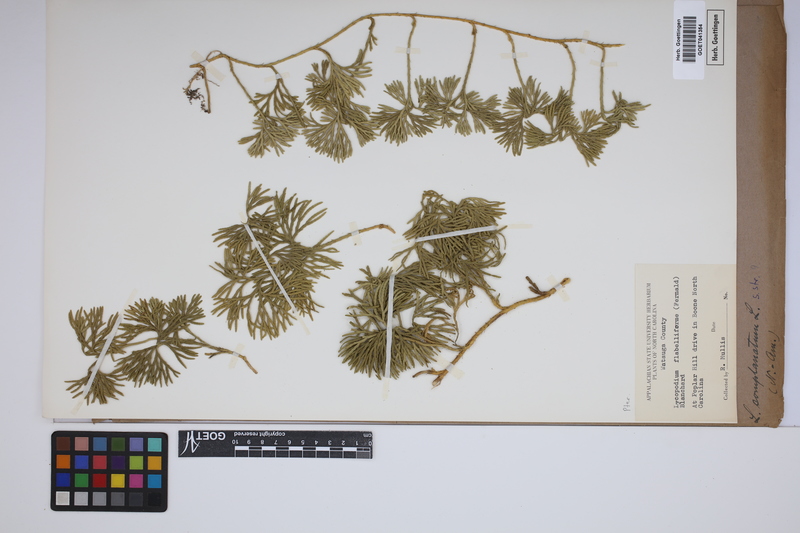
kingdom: Plantae
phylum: Tracheophyta
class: Lycopodiopsida
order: Lycopodiales
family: Lycopodiaceae
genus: Diphasiastrum
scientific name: Diphasiastrum digitatum
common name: Southern running-pine
